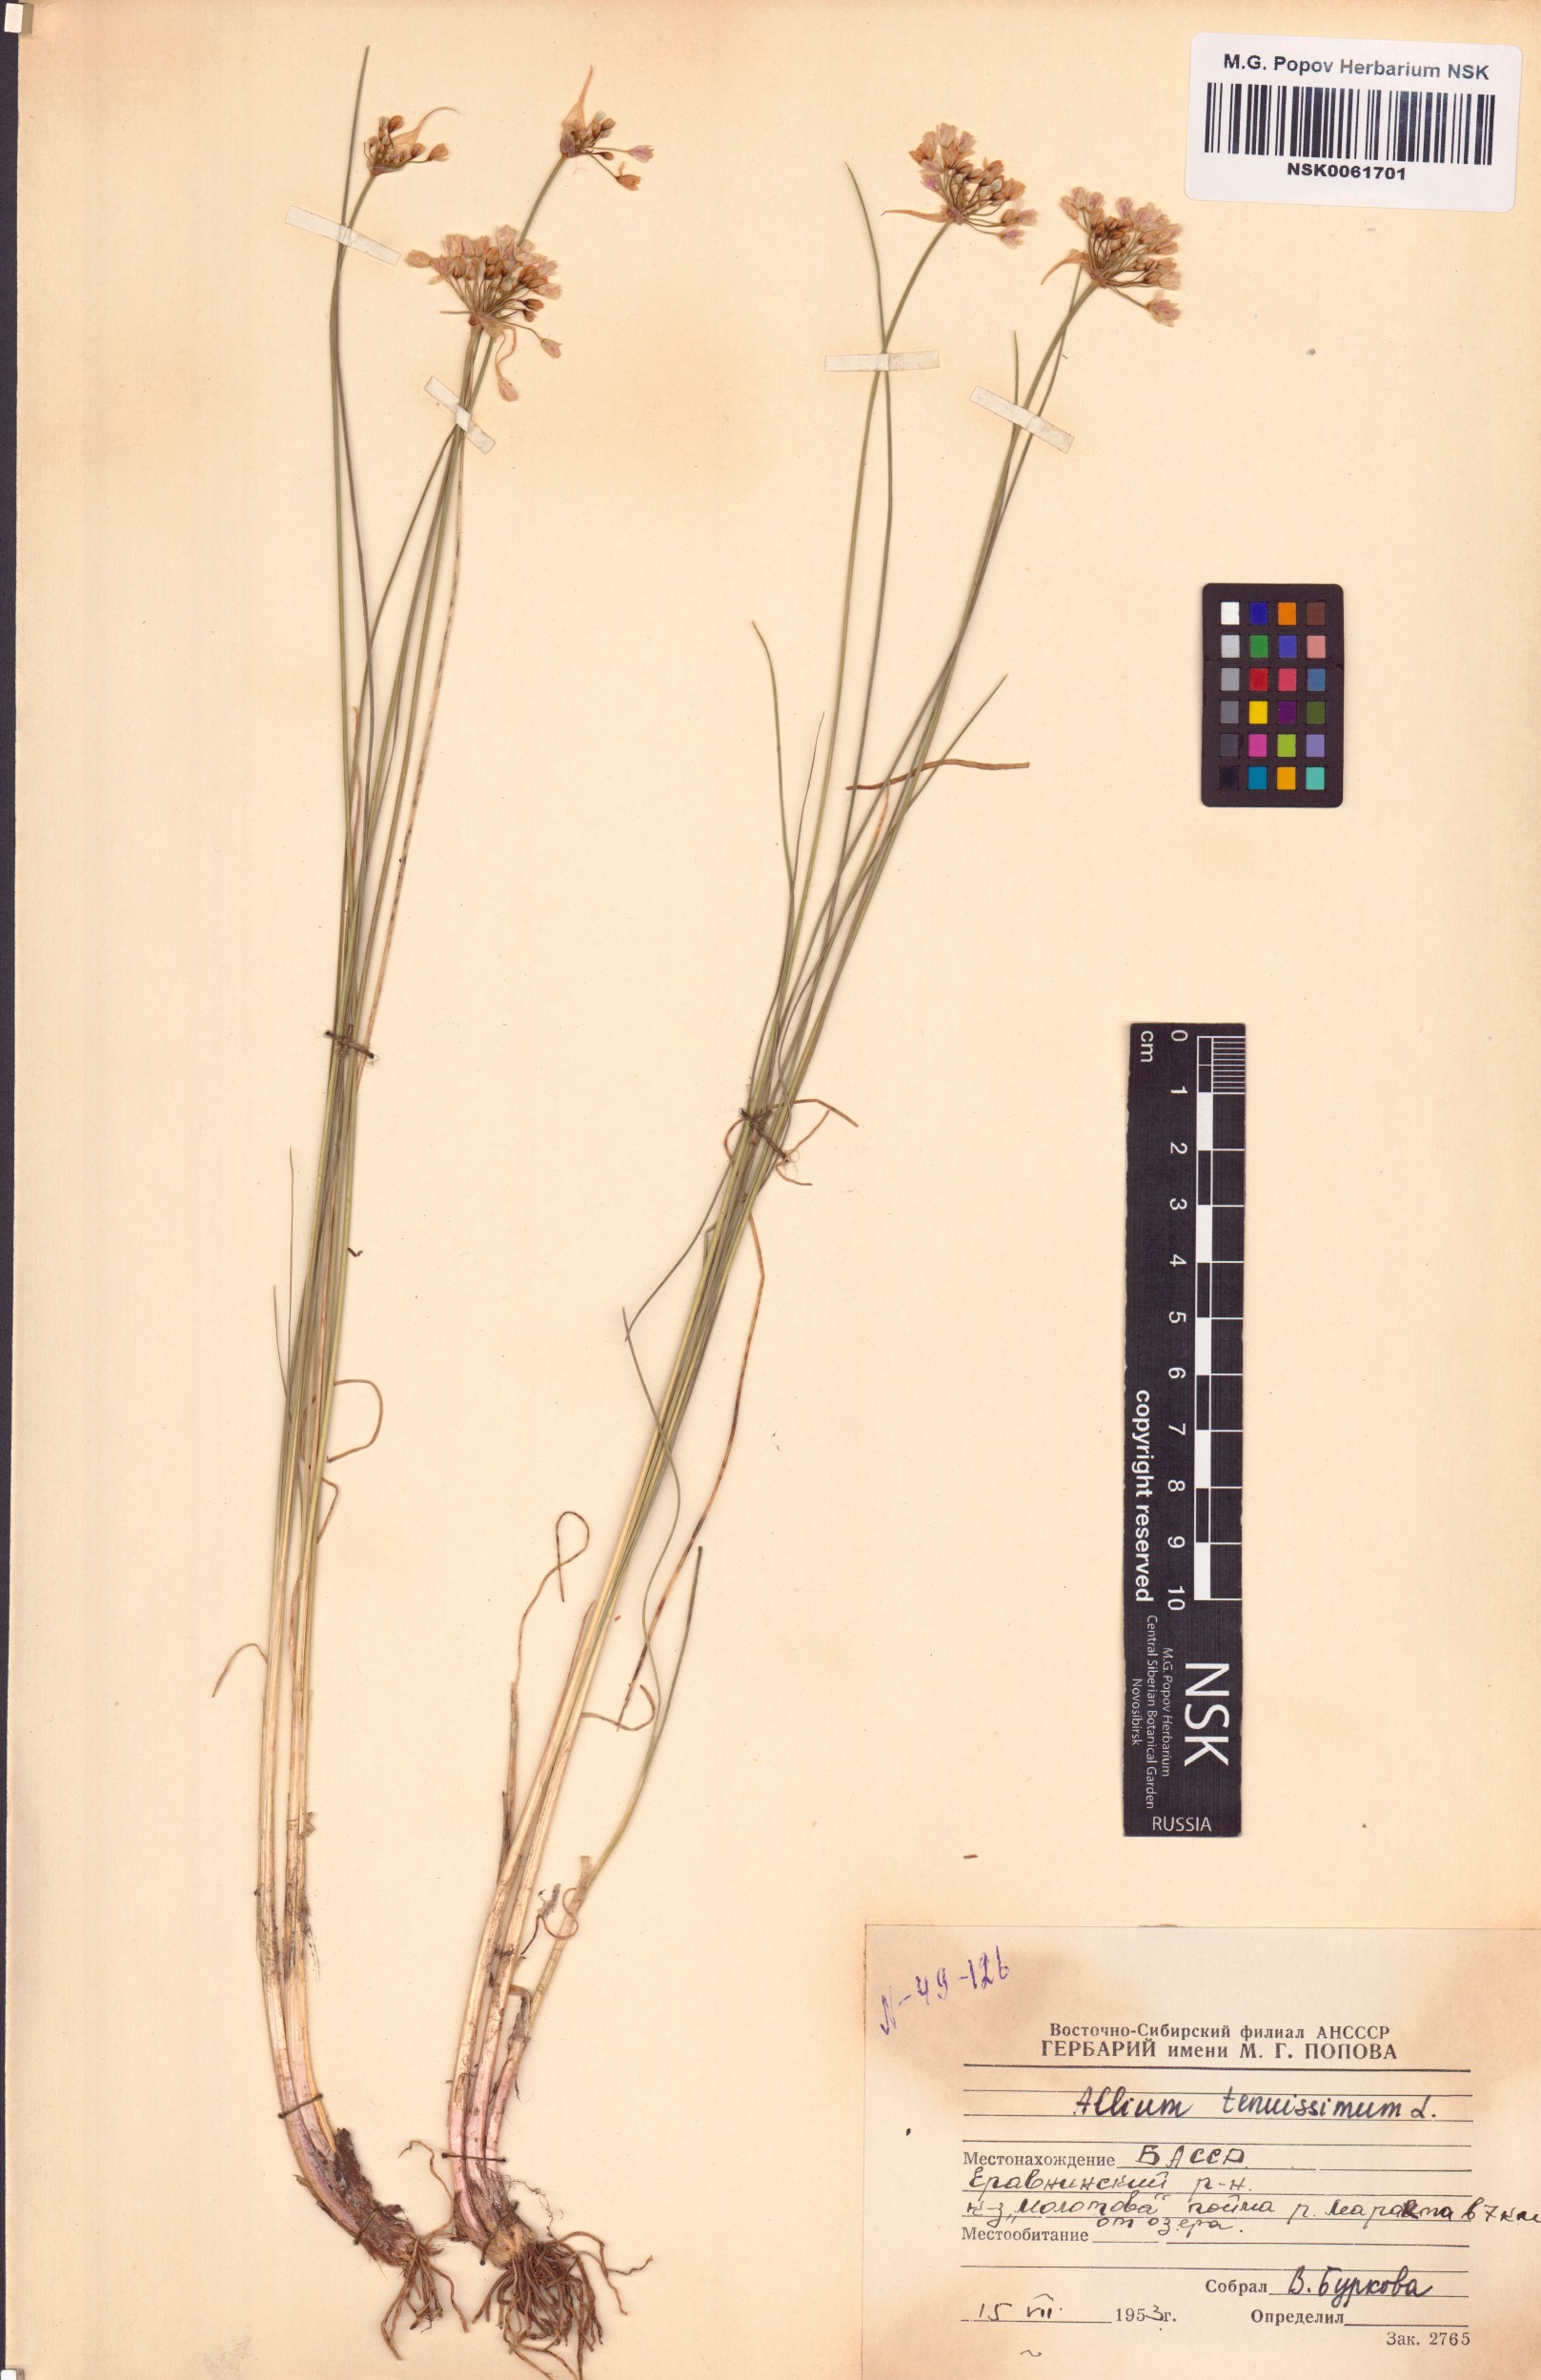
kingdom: Plantae
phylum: Tracheophyta
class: Liliopsida
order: Asparagales
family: Amaryllidaceae
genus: Allium
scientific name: Allium tenuissimum
